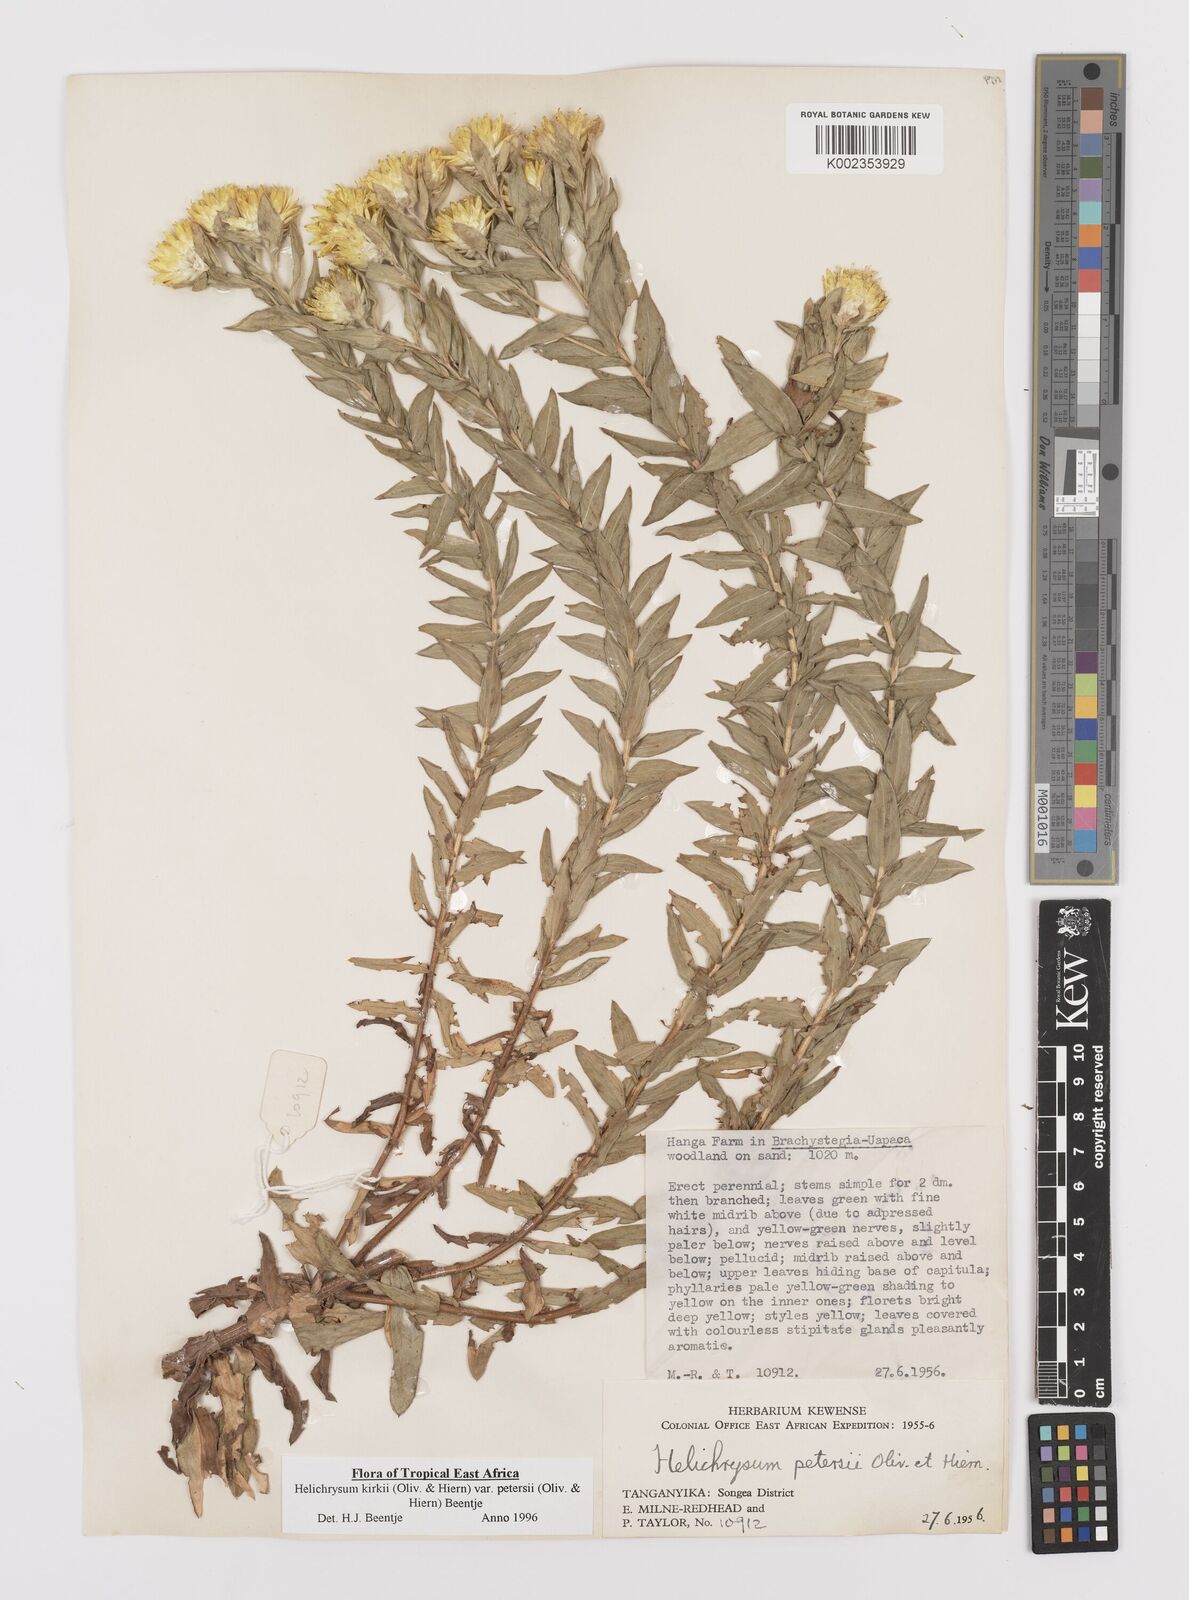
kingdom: Plantae
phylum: Tracheophyta
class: Magnoliopsida
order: Asterales
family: Asteraceae
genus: Helichrysum
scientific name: Helichrysum kirkii
